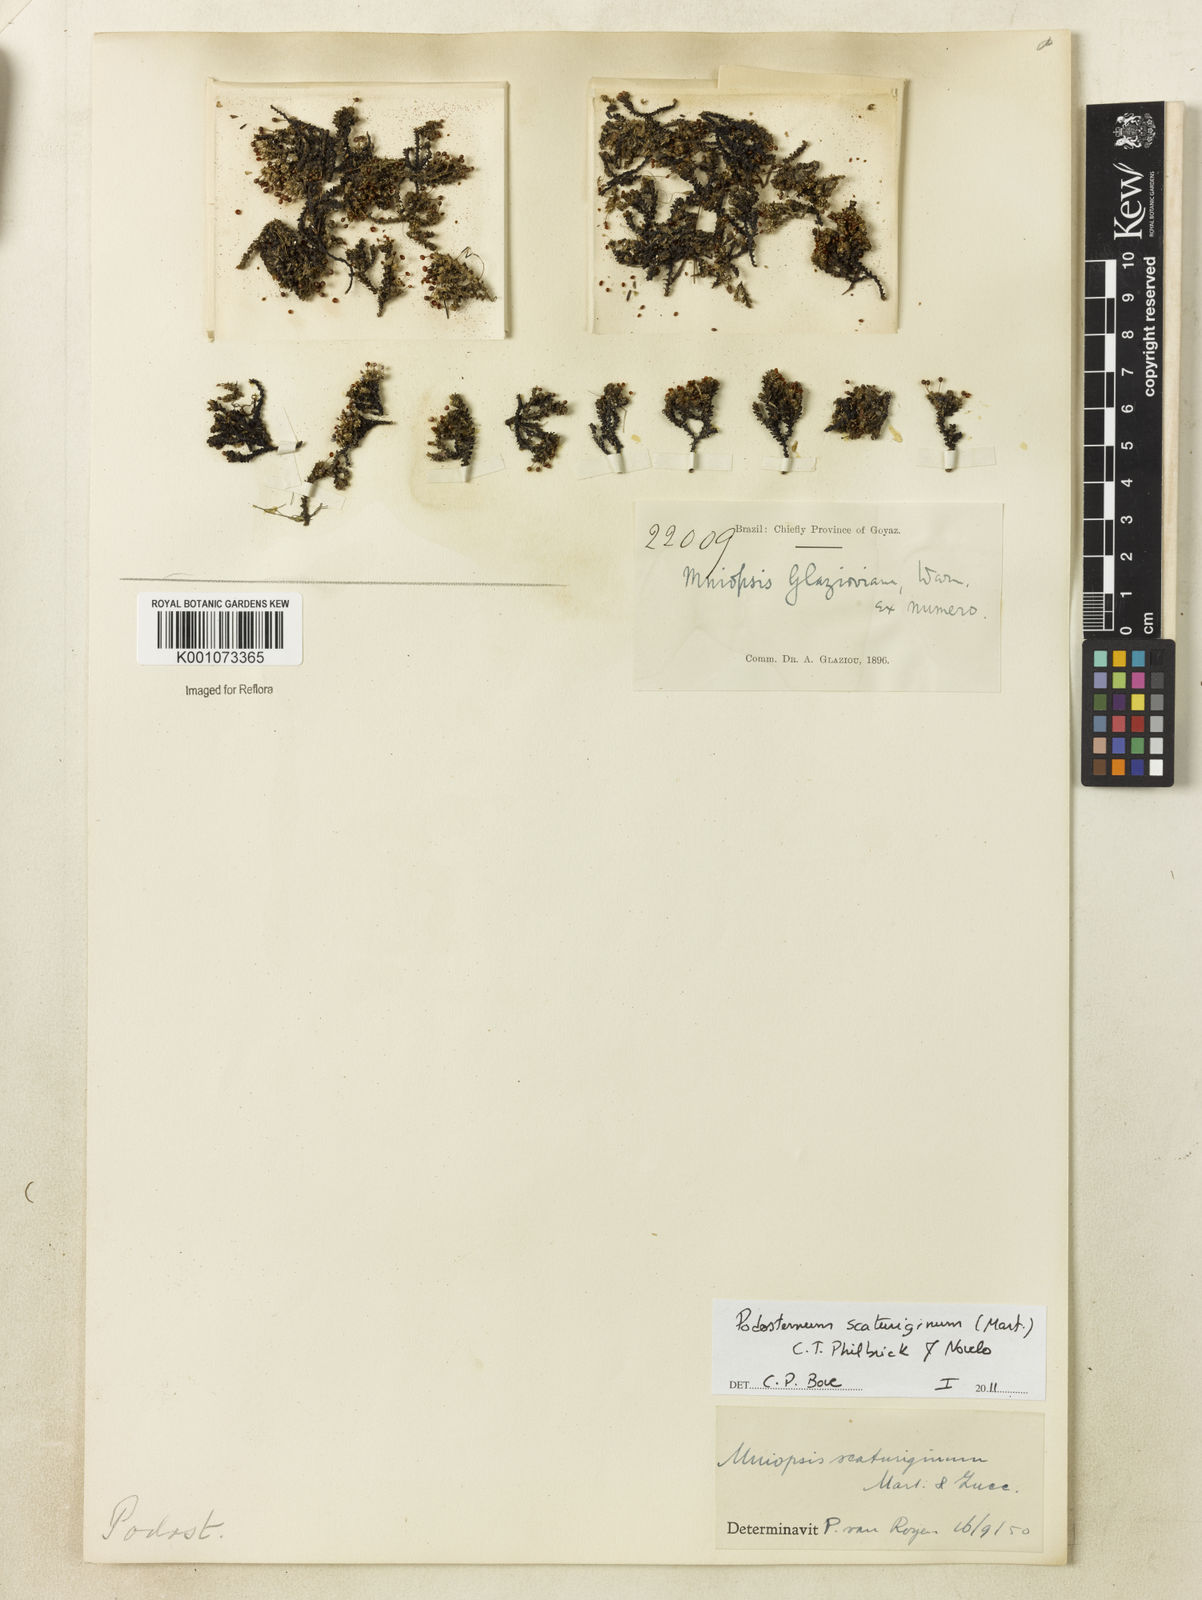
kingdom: Plantae
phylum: Tracheophyta
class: Magnoliopsida
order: Malpighiales
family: Podostemaceae
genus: Podostemum
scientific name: Podostemum scaturiginum
